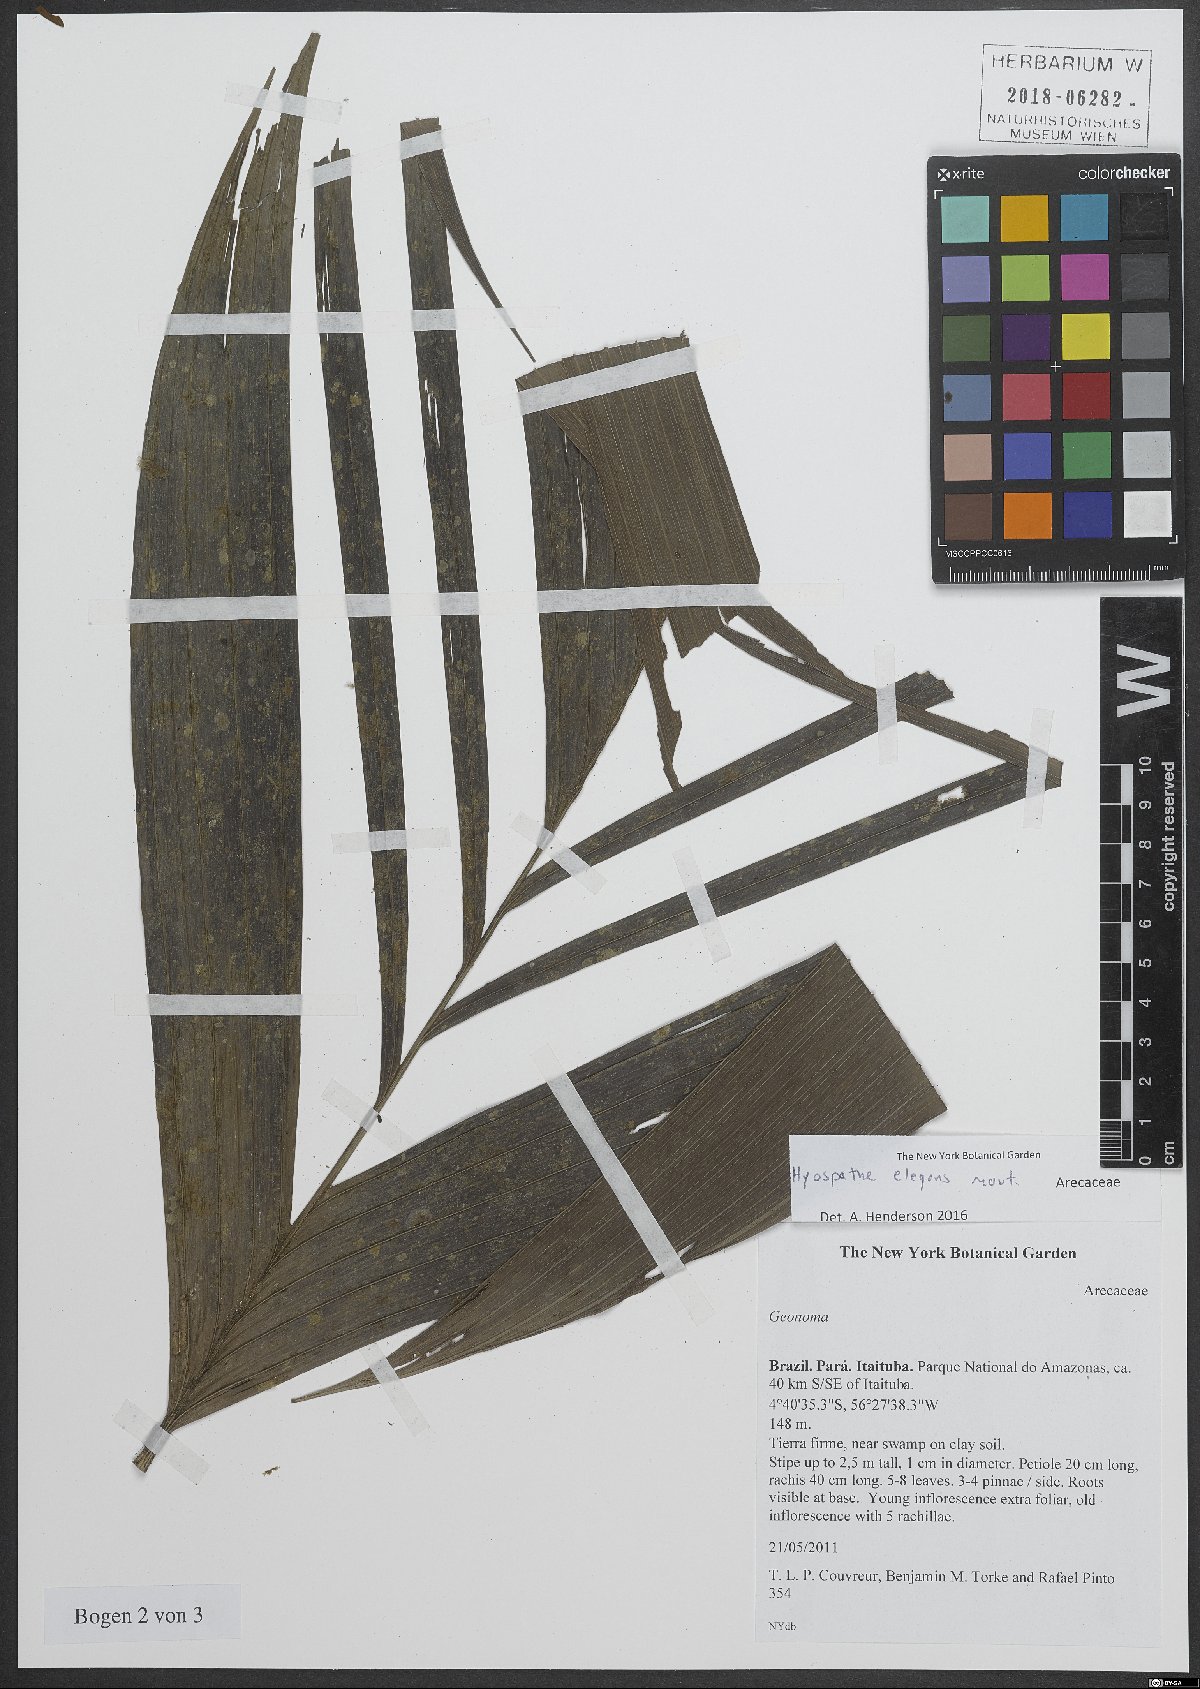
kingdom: Plantae
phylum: Tracheophyta
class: Liliopsida
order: Arecales
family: Arecaceae
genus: Hyospathe
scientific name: Hyospathe elegans
